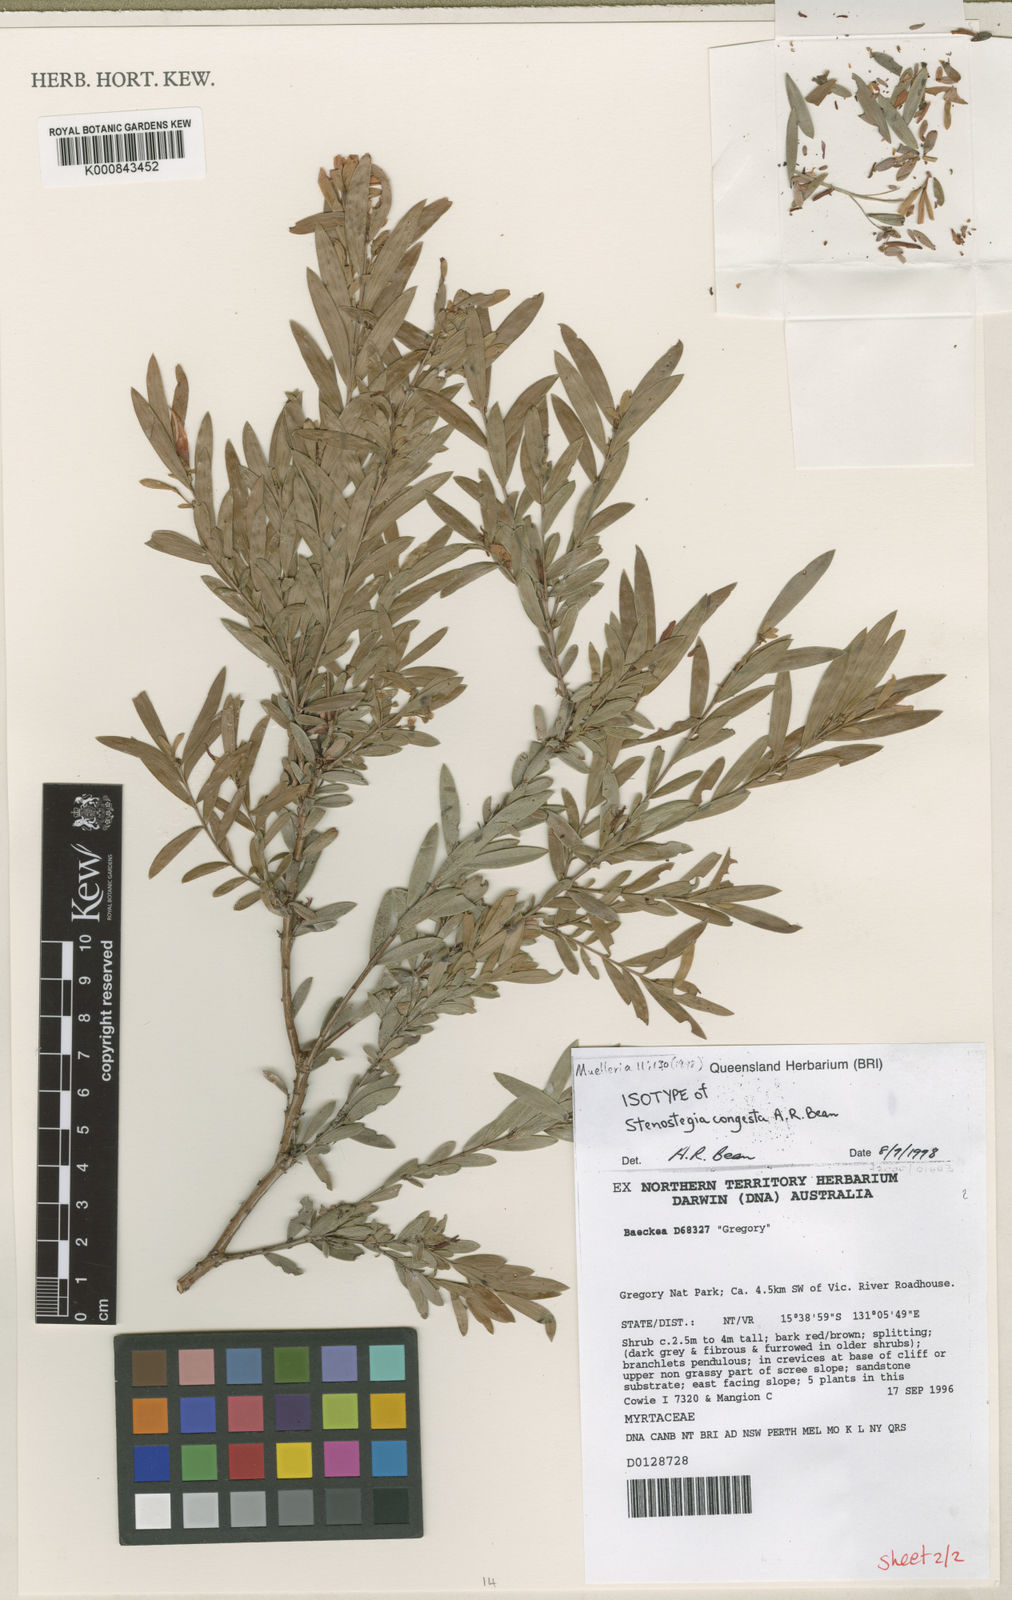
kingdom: Plantae
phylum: Tracheophyta
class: Magnoliopsida
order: Myrtales
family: Myrtaceae
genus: Stenostegia
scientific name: Stenostegia congesta
